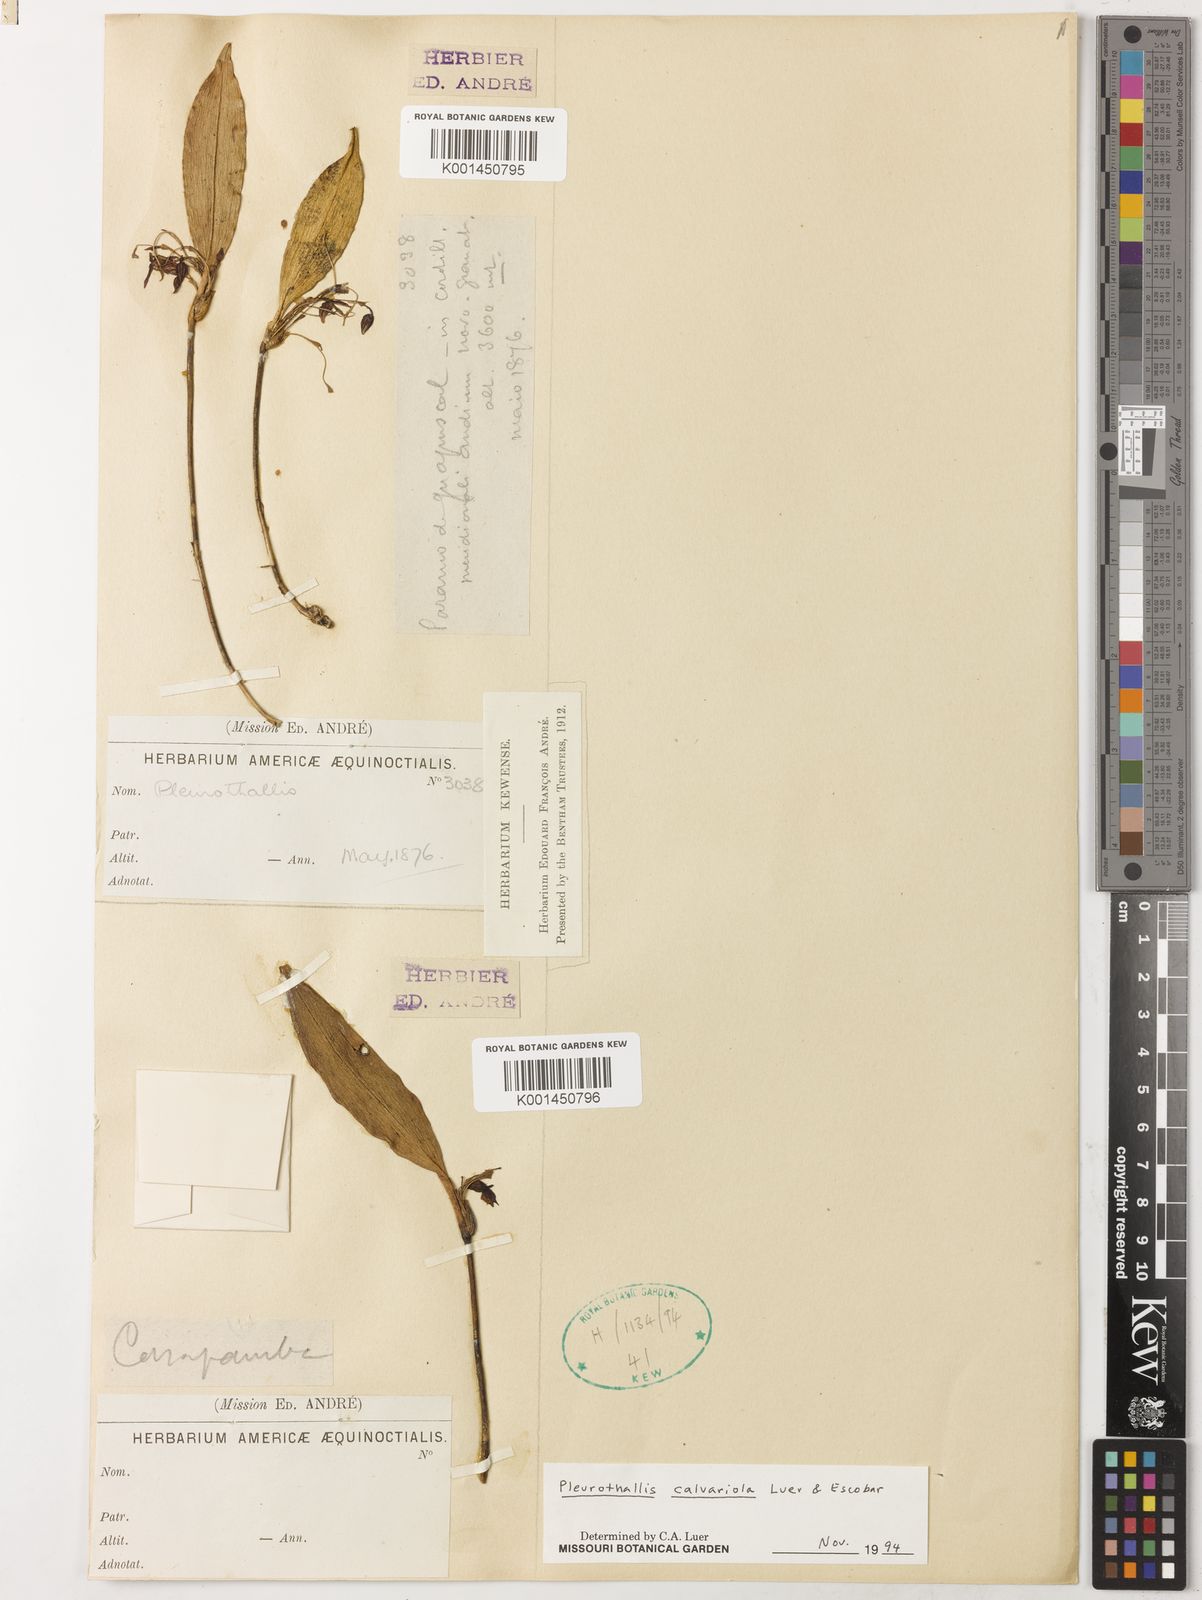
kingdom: Plantae
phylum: Tracheophyta
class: Liliopsida
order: Asparagales
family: Orchidaceae
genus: Pleurothallis
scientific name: Pleurothallis calvariola
